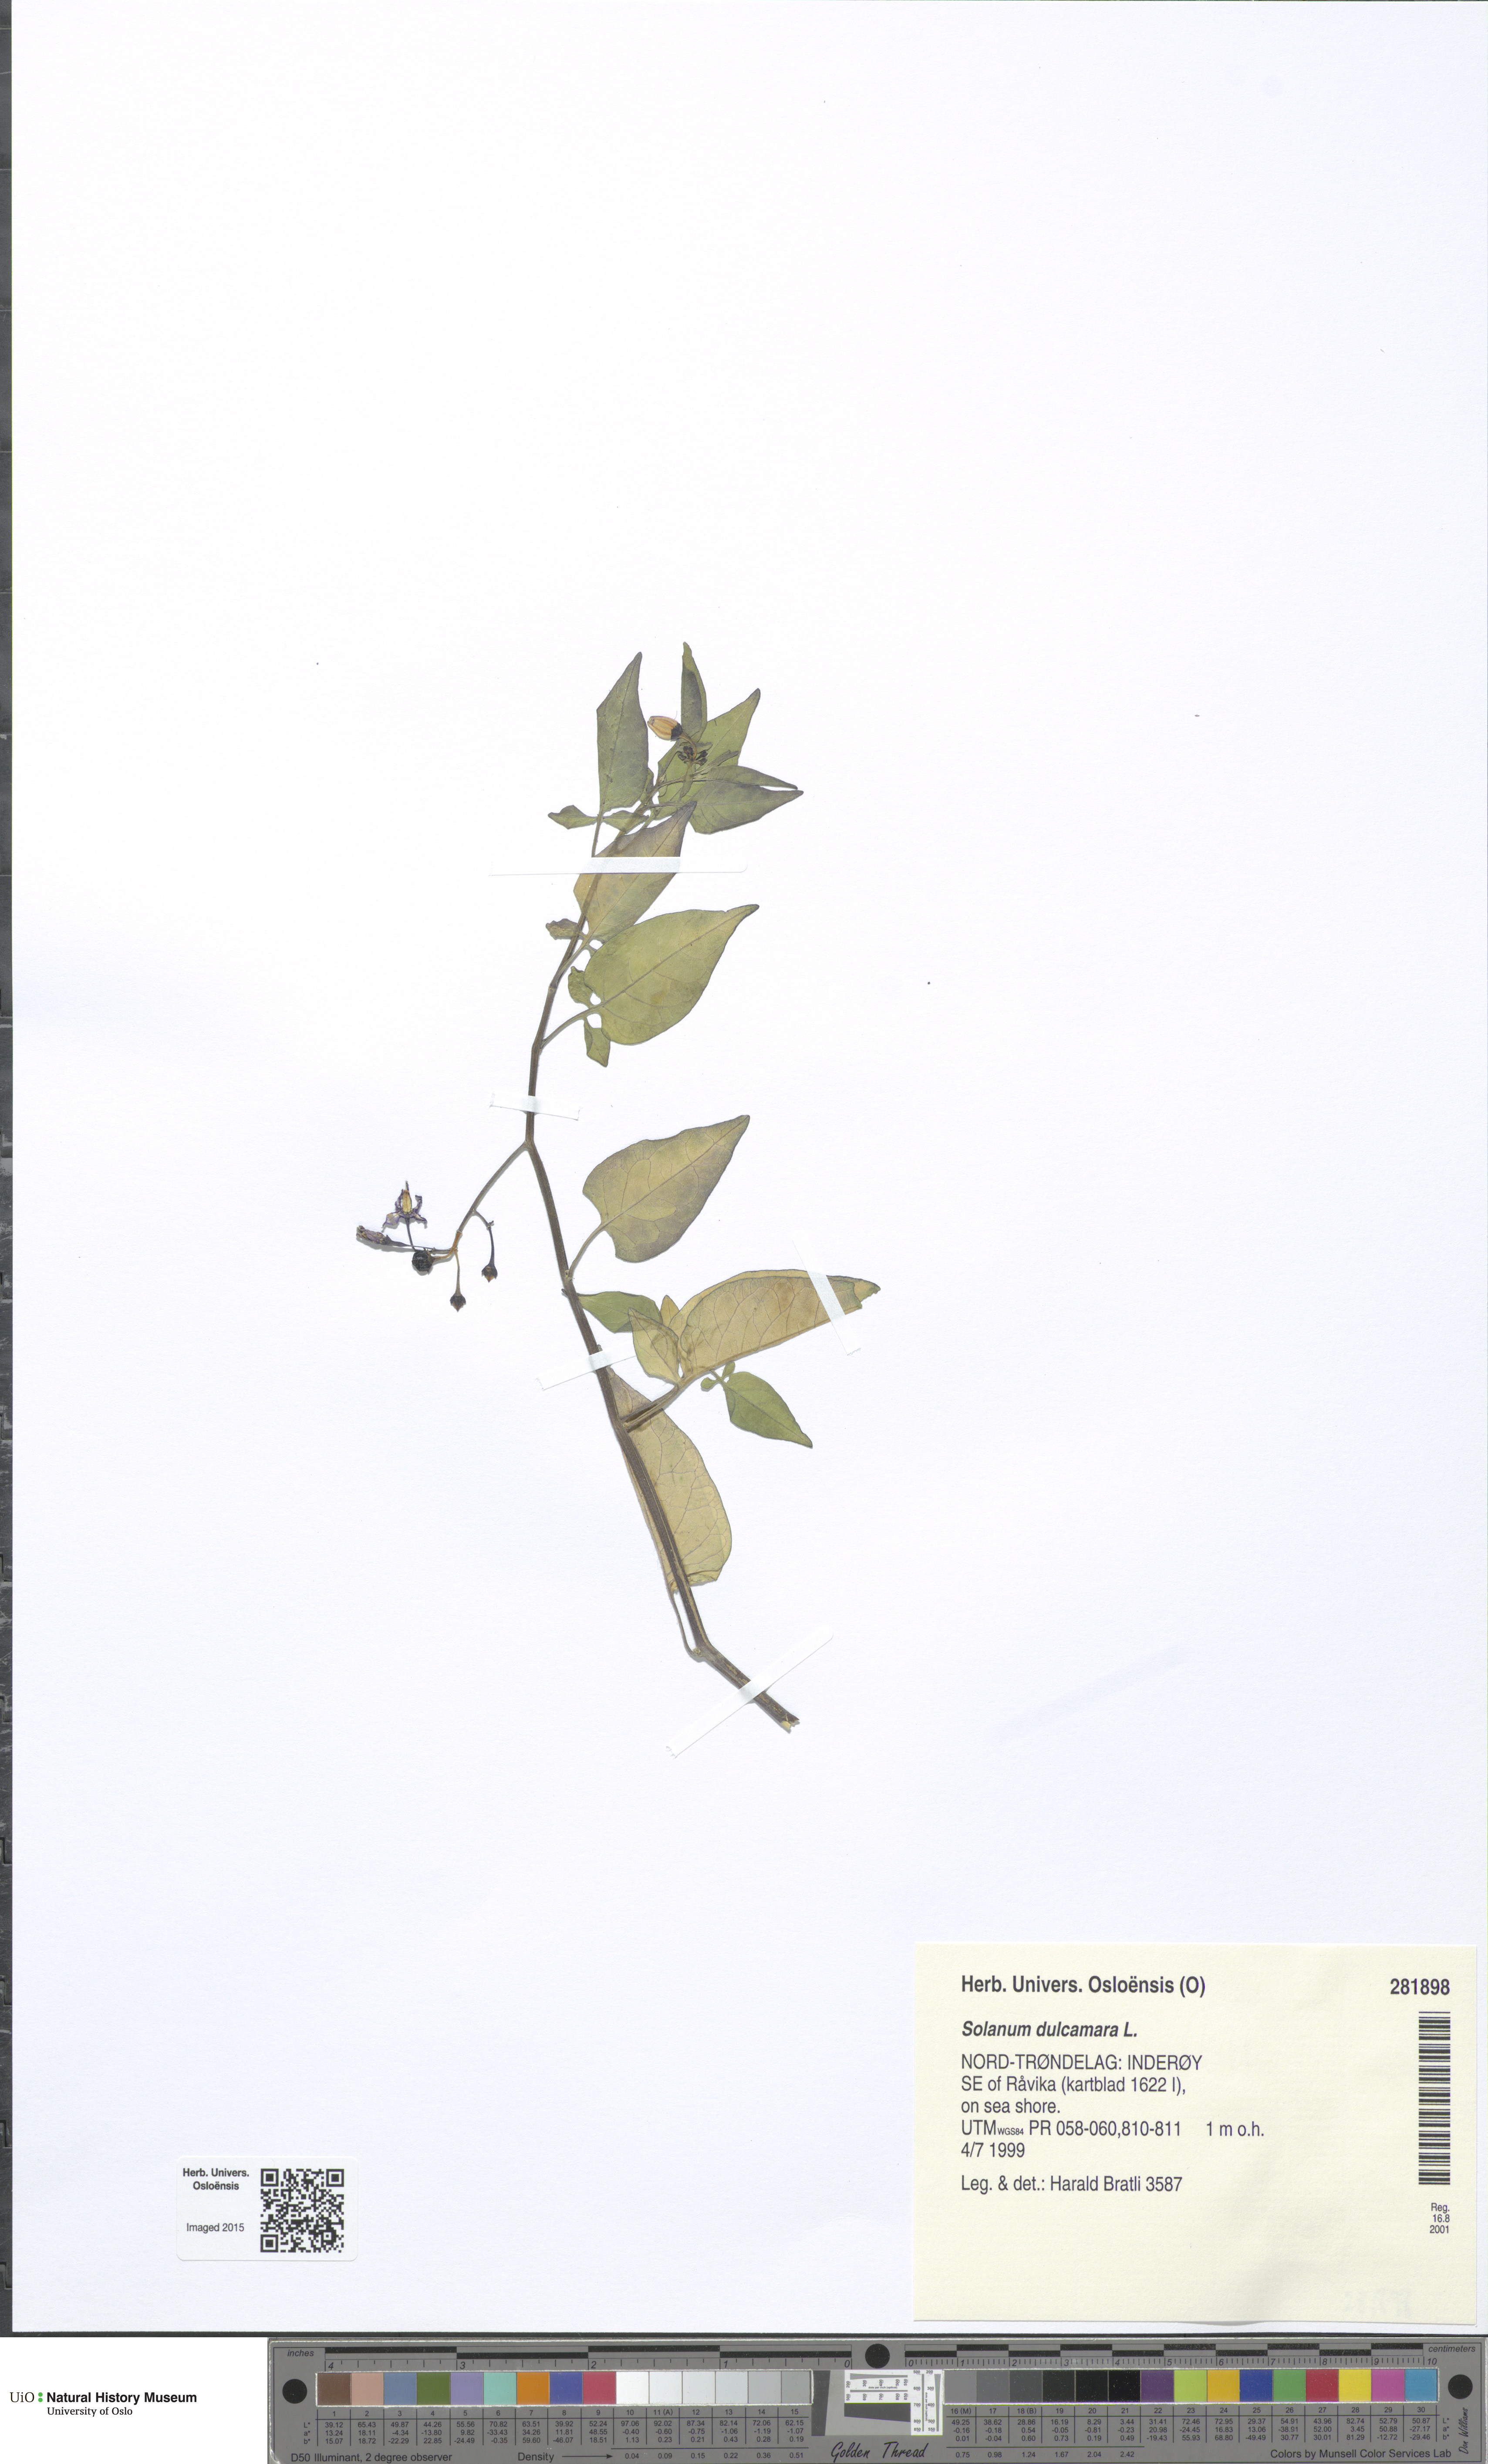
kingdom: Plantae
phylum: Tracheophyta
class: Magnoliopsida
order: Solanales
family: Solanaceae
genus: Solanum
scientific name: Solanum dulcamara
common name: Climbing nightshade
